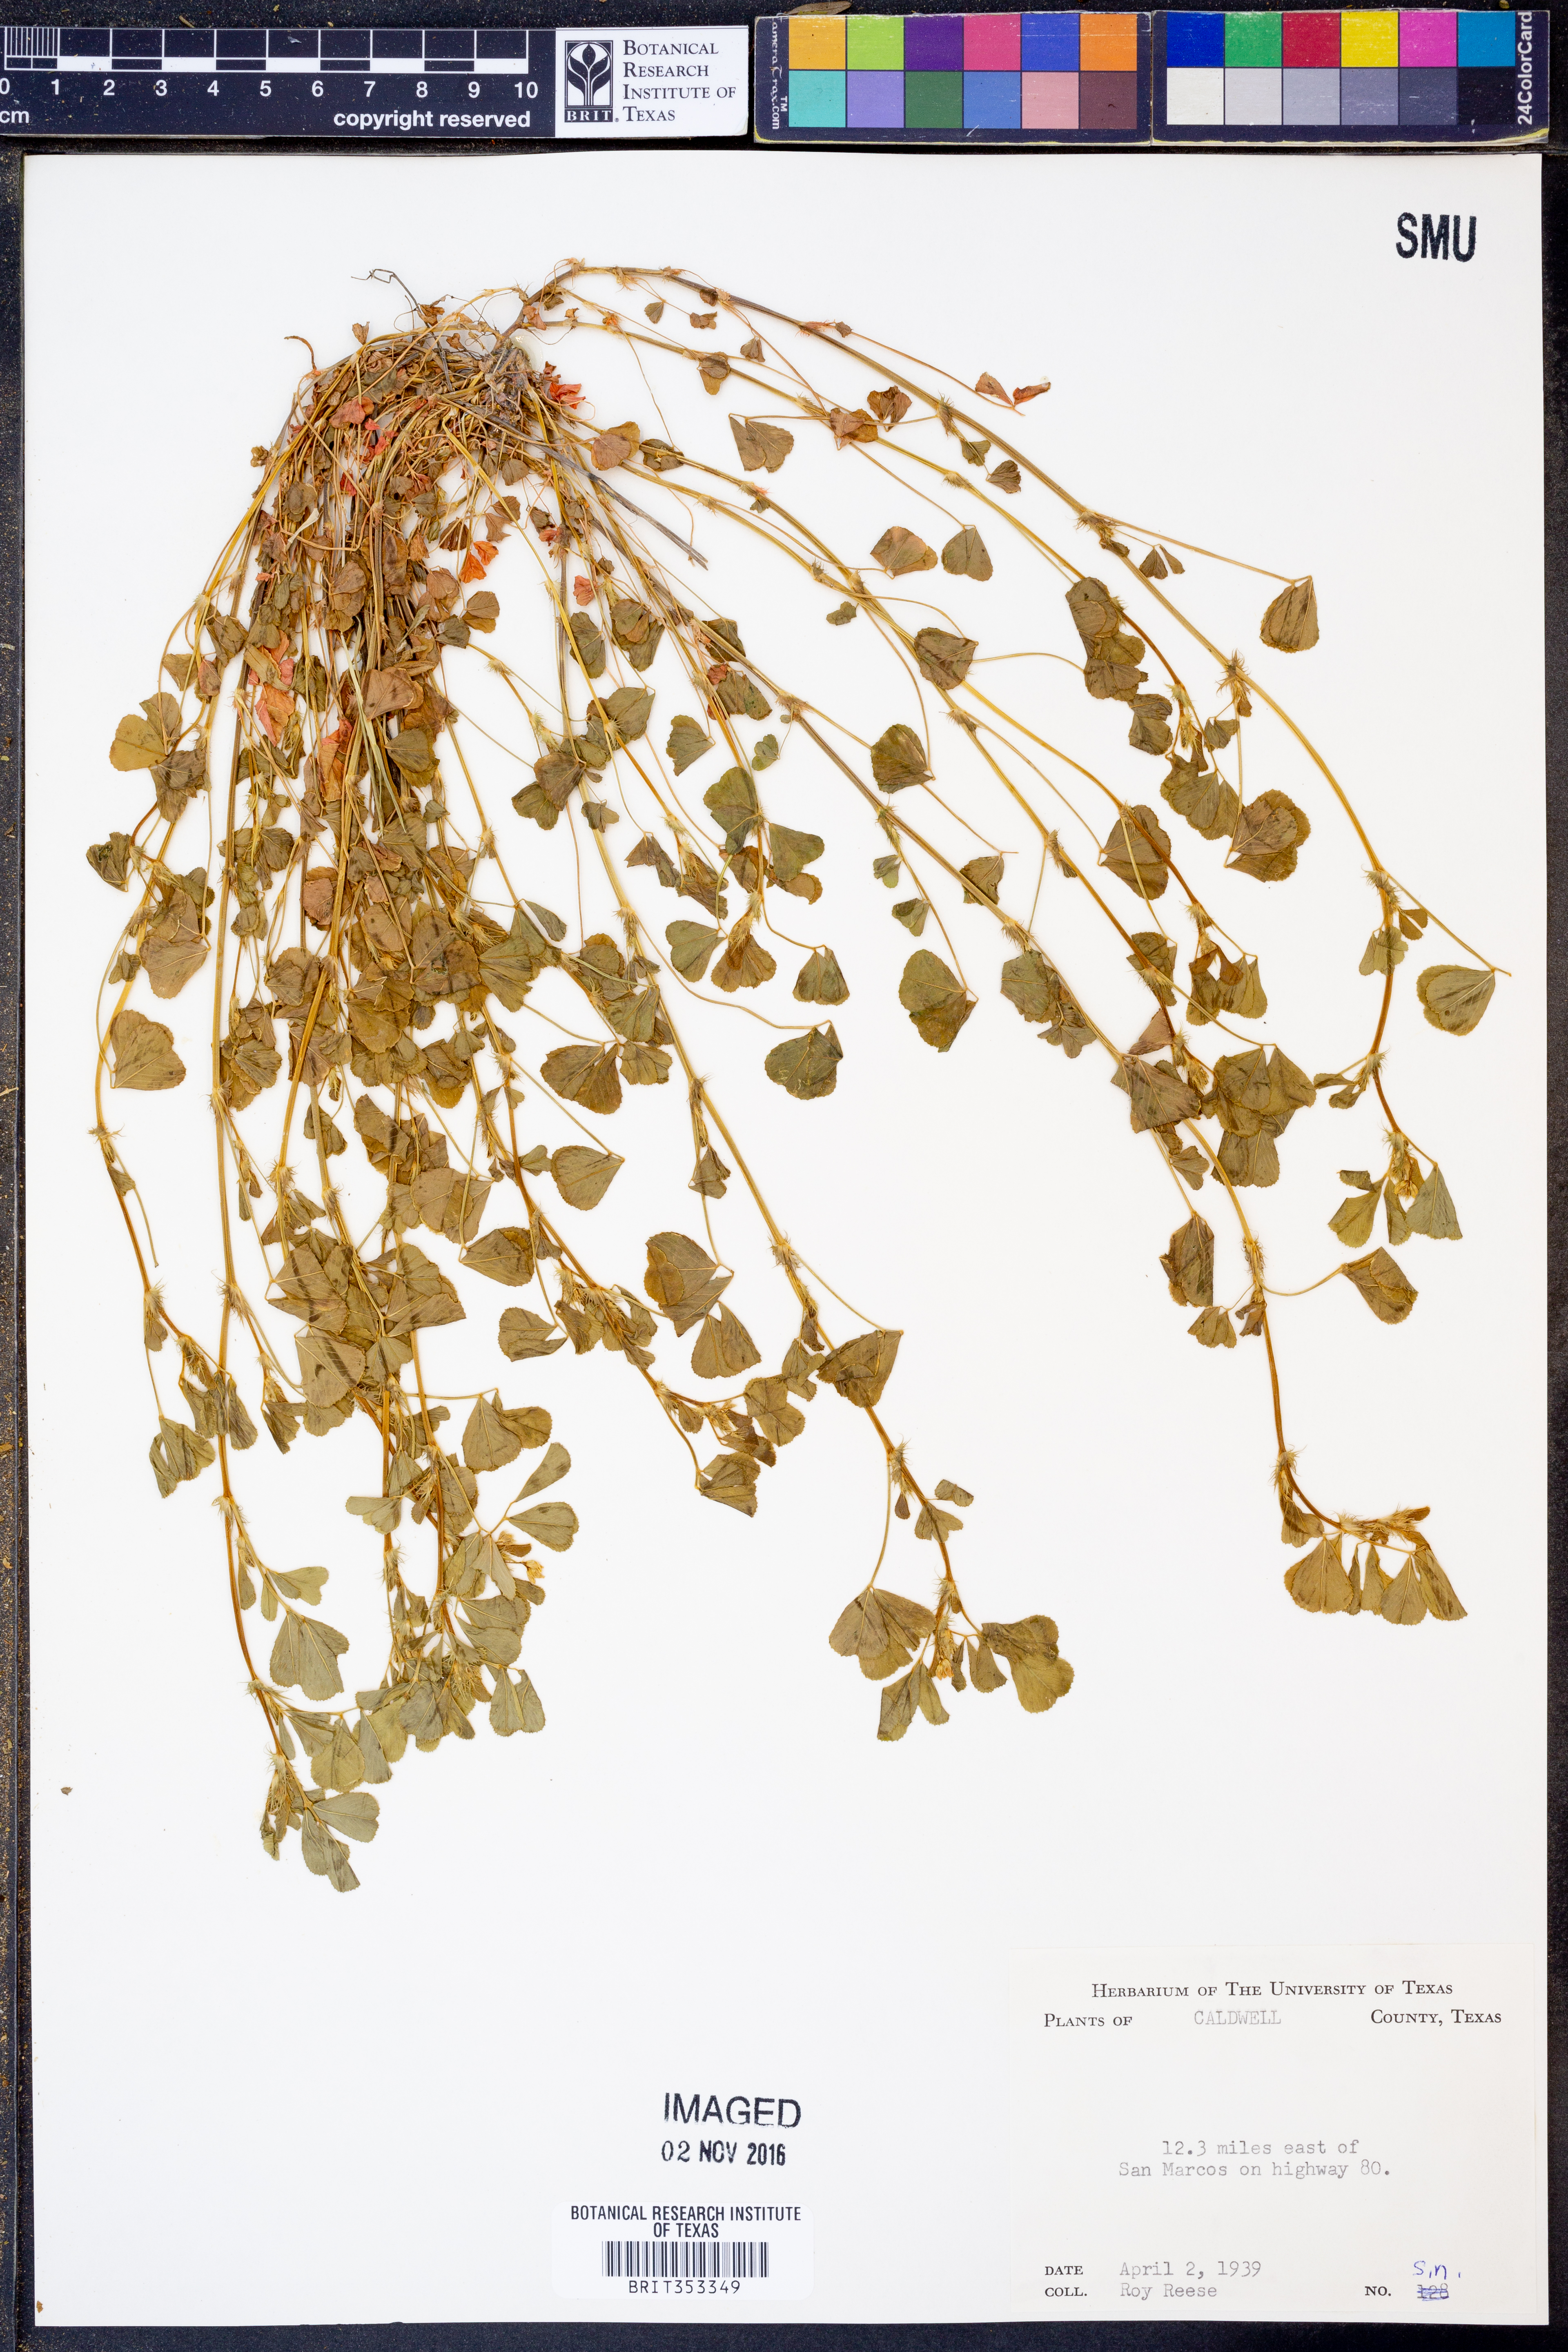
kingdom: Plantae
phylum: Tracheophyta
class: Magnoliopsida
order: Fabales
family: Fabaceae
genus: Trifolium
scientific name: Trifolium
